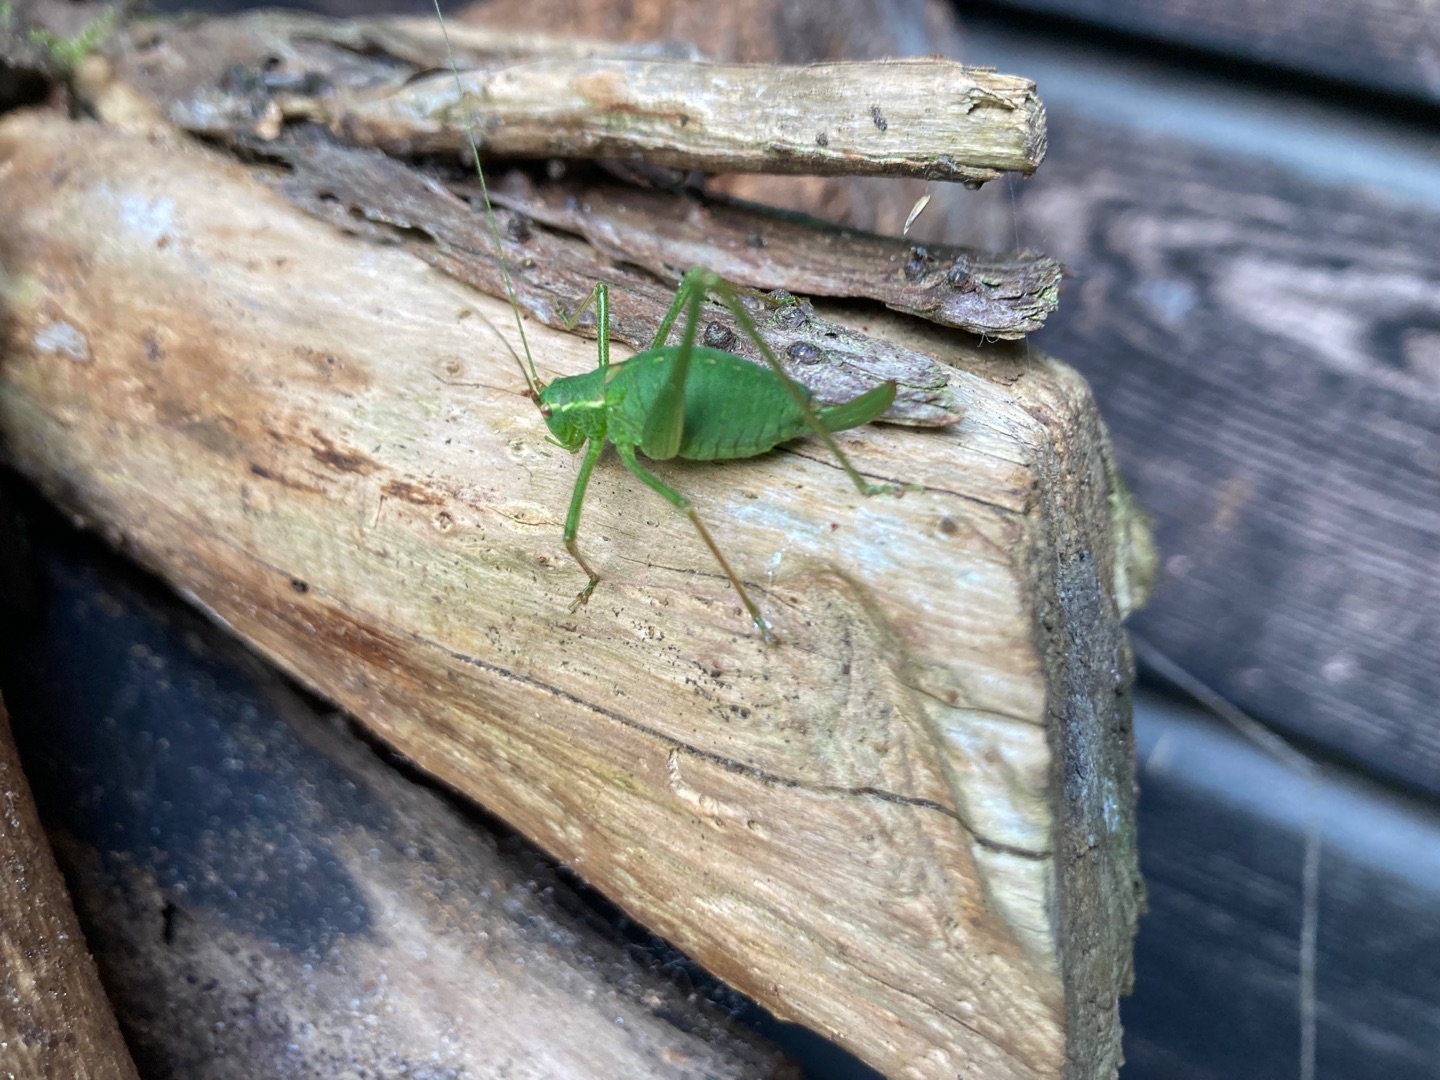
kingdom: Animalia
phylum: Arthropoda
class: Insecta
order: Orthoptera
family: Tettigoniidae
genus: Leptophyes
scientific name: Leptophyes punctatissima
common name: Krumknivgræshoppe
